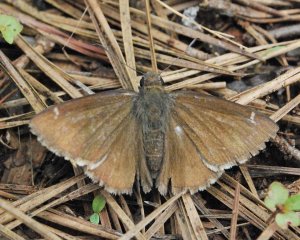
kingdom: Animalia
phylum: Arthropoda
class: Insecta
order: Lepidoptera
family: Hesperiidae
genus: Thorybes
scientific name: Thorybes mexicana
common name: Confused Cloudywing
